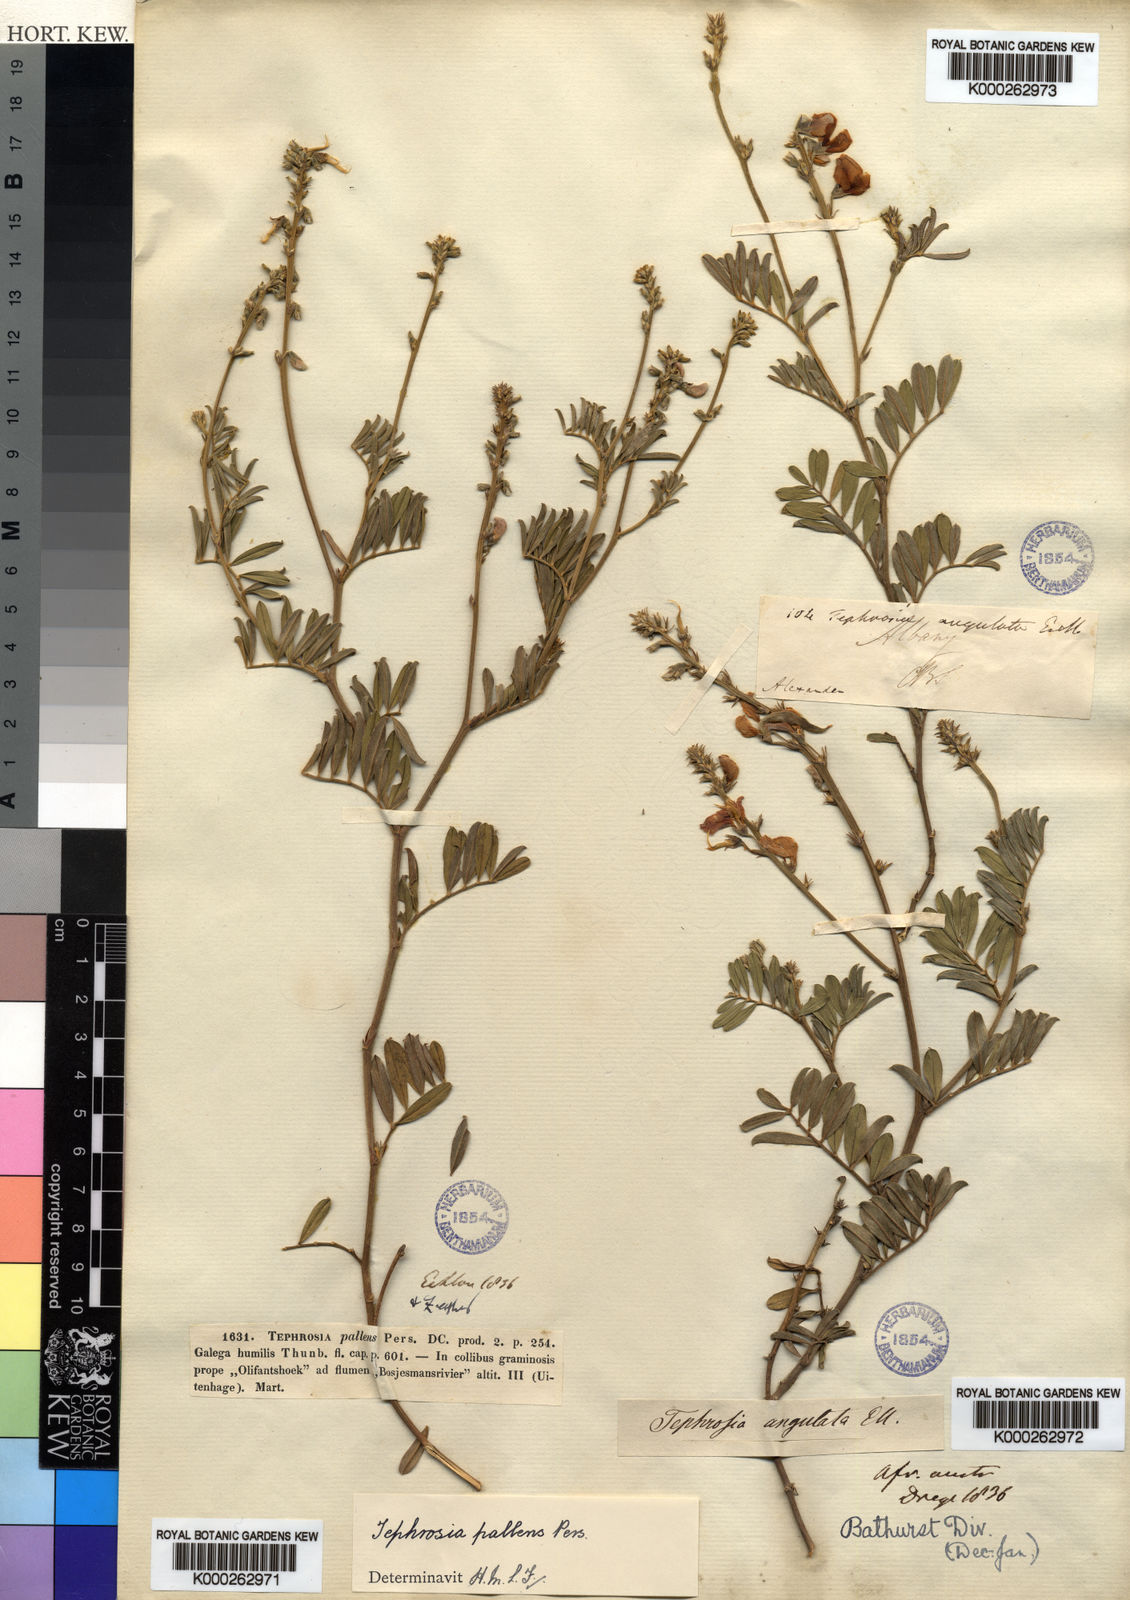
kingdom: Plantae
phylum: Tracheophyta
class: Magnoliopsida
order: Fabales
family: Fabaceae
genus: Tephrosia
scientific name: Tephrosia capensis
